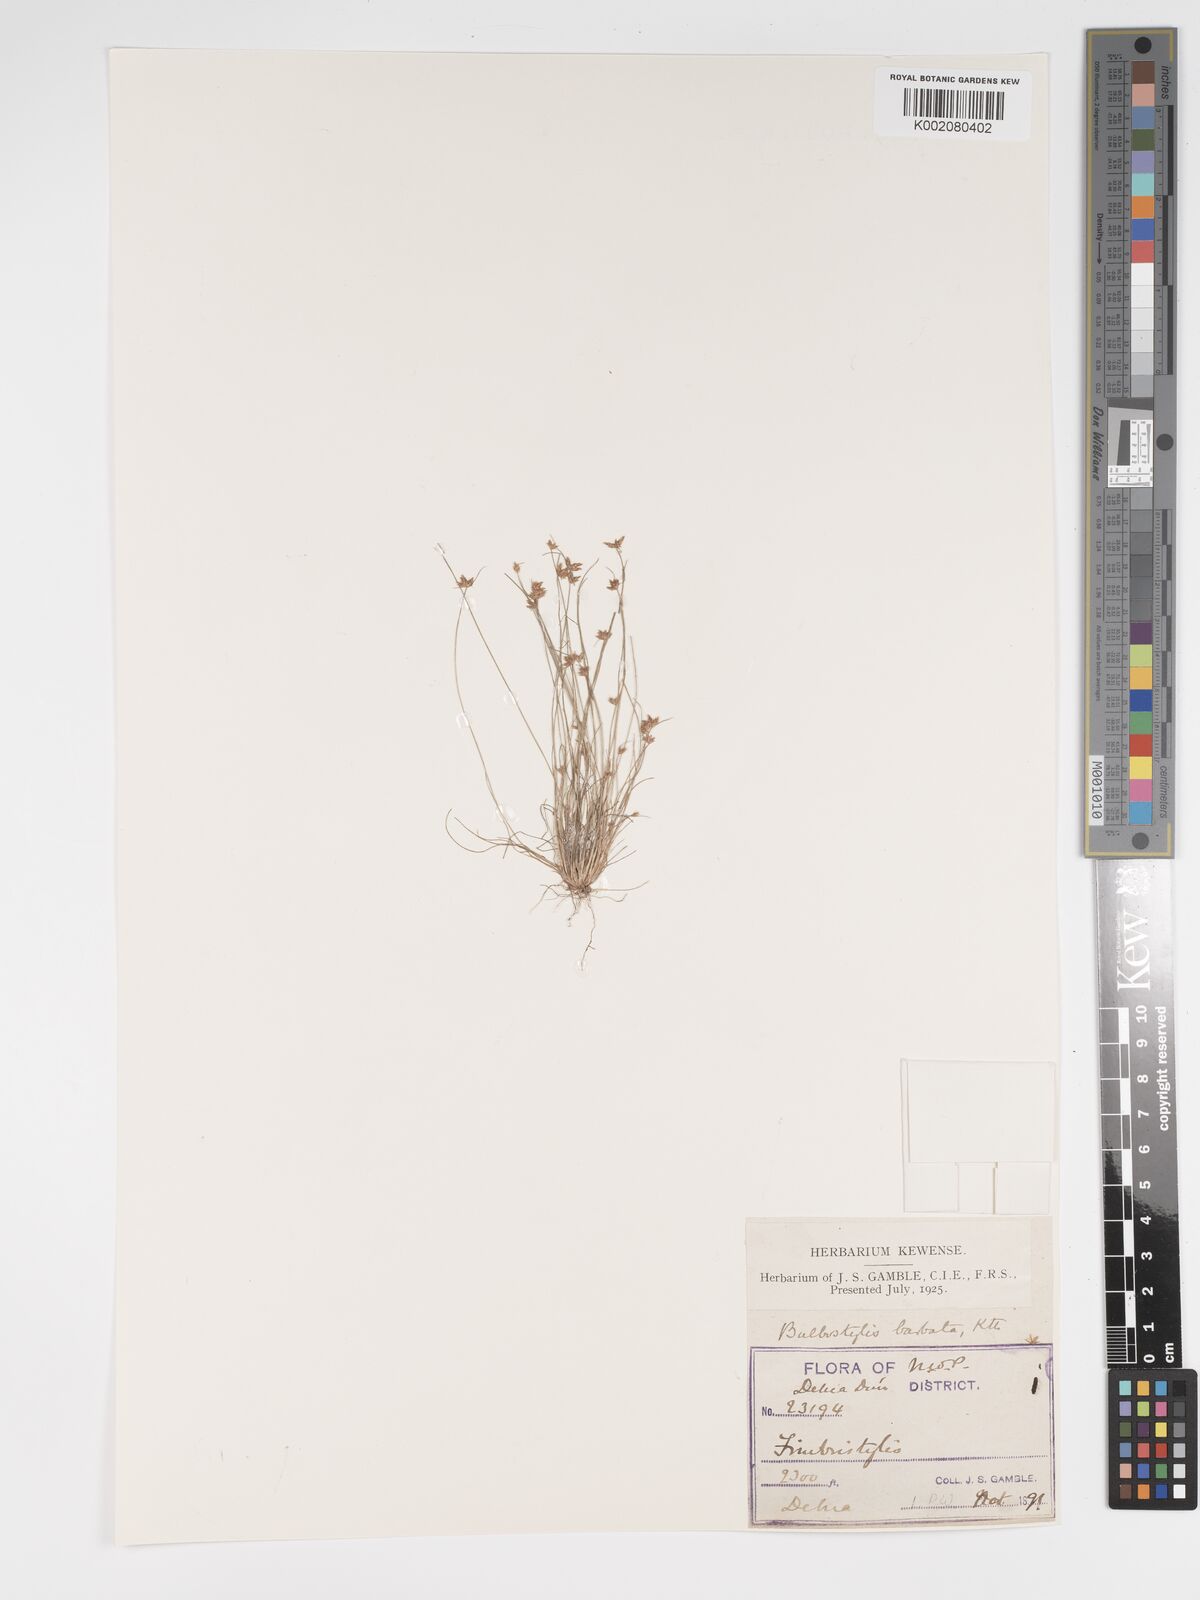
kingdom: Plantae
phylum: Tracheophyta
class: Liliopsida
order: Poales
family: Cyperaceae
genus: Bulbostylis
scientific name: Bulbostylis barbata
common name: Watergrass
